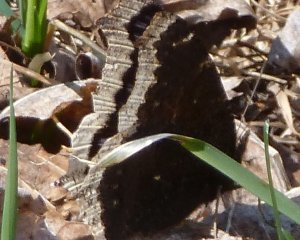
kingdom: Animalia
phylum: Arthropoda
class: Insecta
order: Lepidoptera
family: Nymphalidae
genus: Nymphalis
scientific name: Nymphalis antiopa
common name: Mourning Cloak
